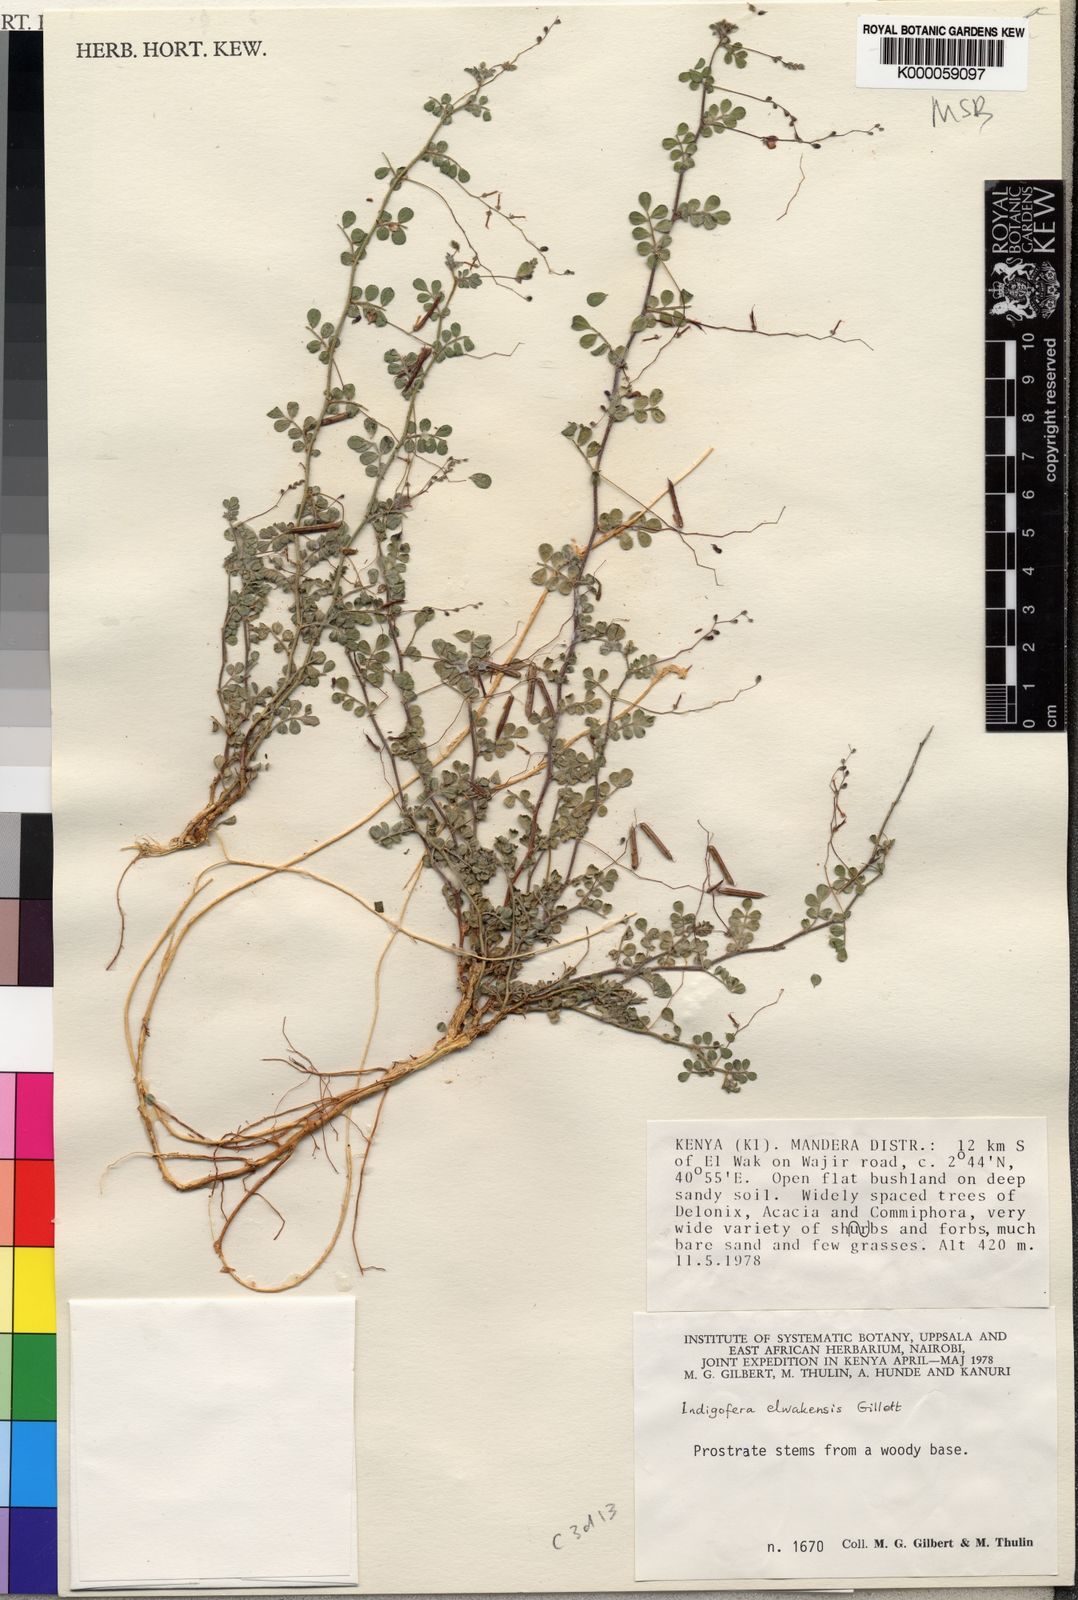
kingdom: Plantae
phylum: Tracheophyta
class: Magnoliopsida
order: Fabales
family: Fabaceae
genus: Indigofera
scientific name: Indigofera elwakensis
